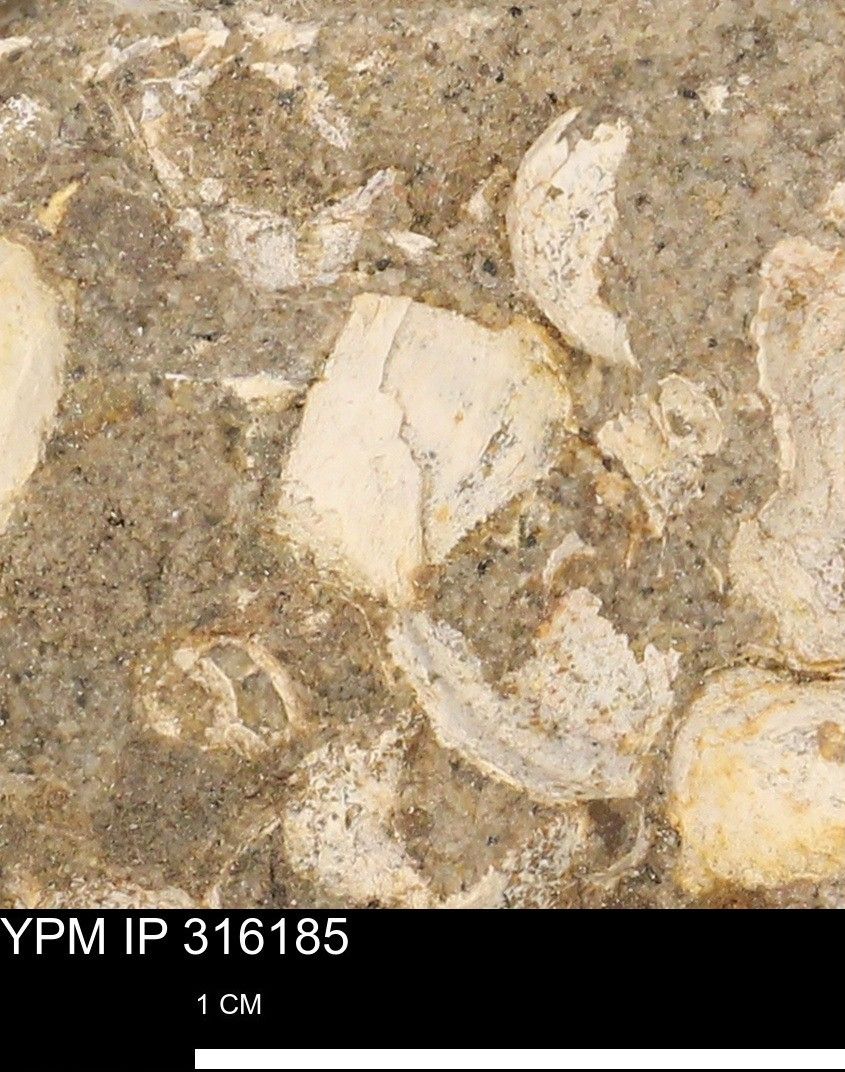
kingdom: Animalia
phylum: Mollusca
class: Gastropoda
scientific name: Gastropoda
